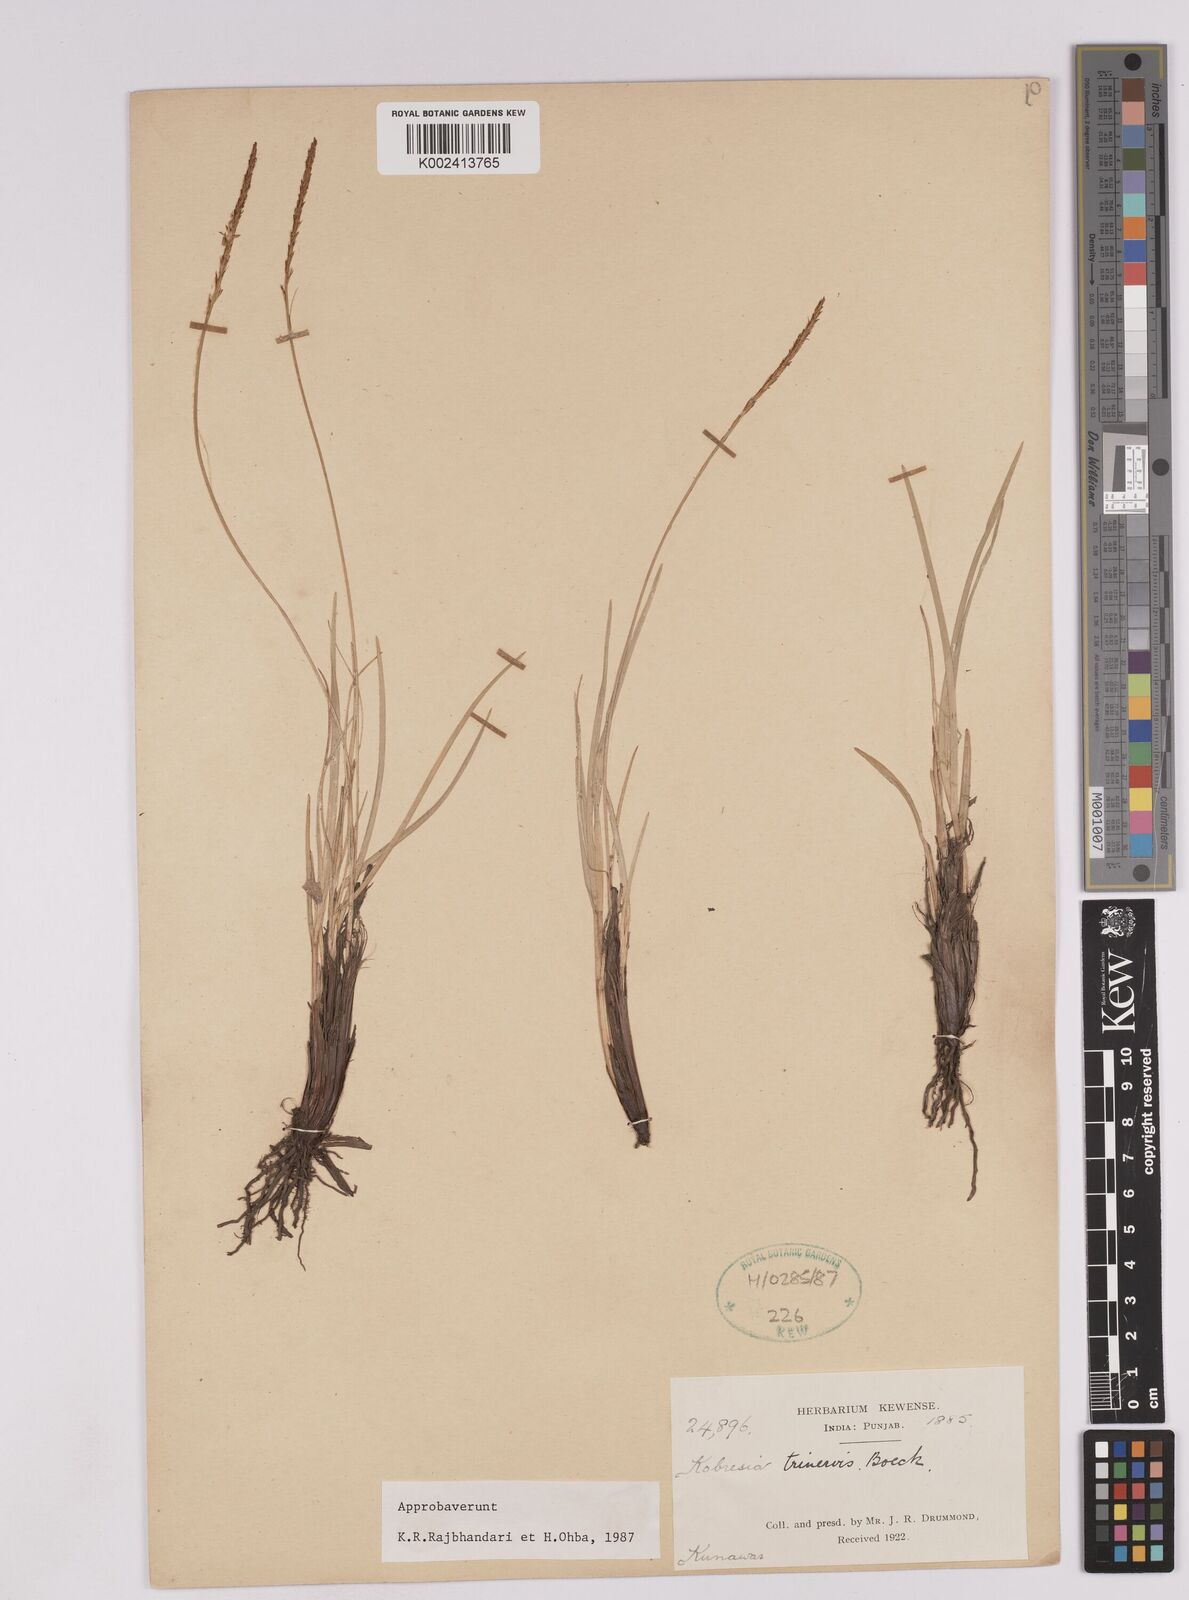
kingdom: Plantae
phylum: Tracheophyta
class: Liliopsida
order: Poales
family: Cyperaceae
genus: Carex
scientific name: Carex esenbeckii
